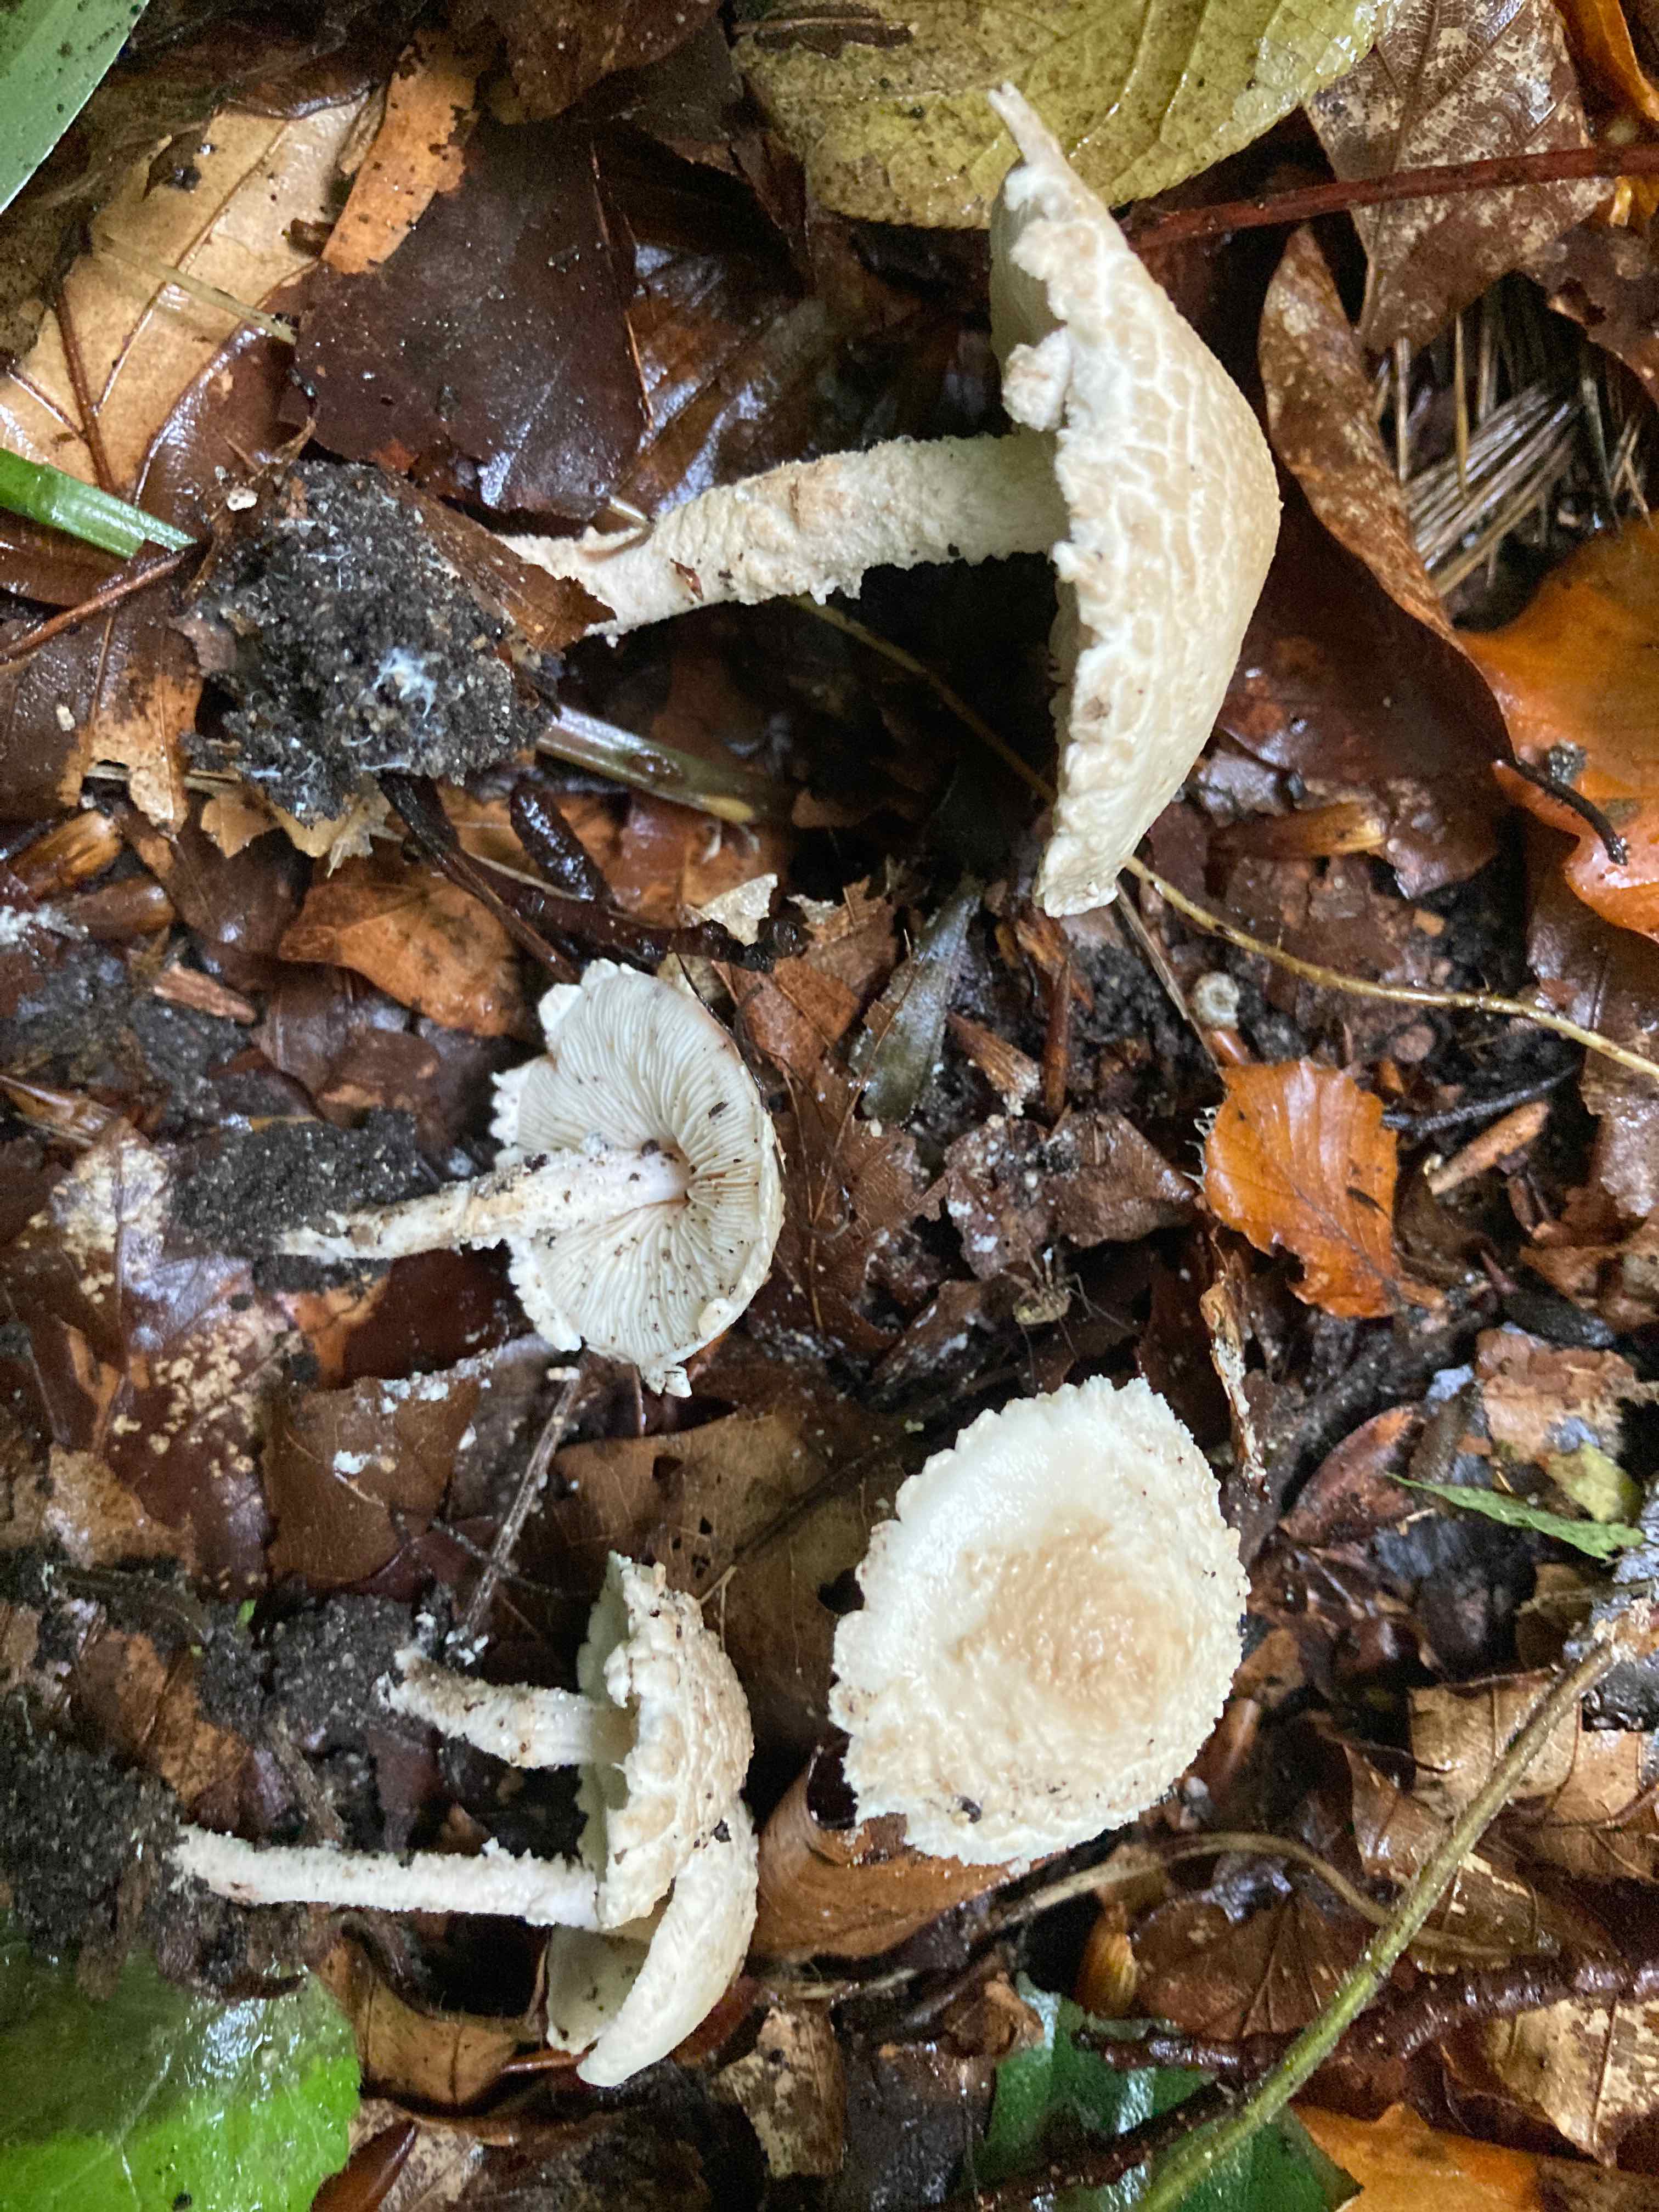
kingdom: Fungi
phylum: Basidiomycota
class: Agaricomycetes
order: Agaricales
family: Agaricaceae
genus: Cystolepiota
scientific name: Cystolepiota adulterina
